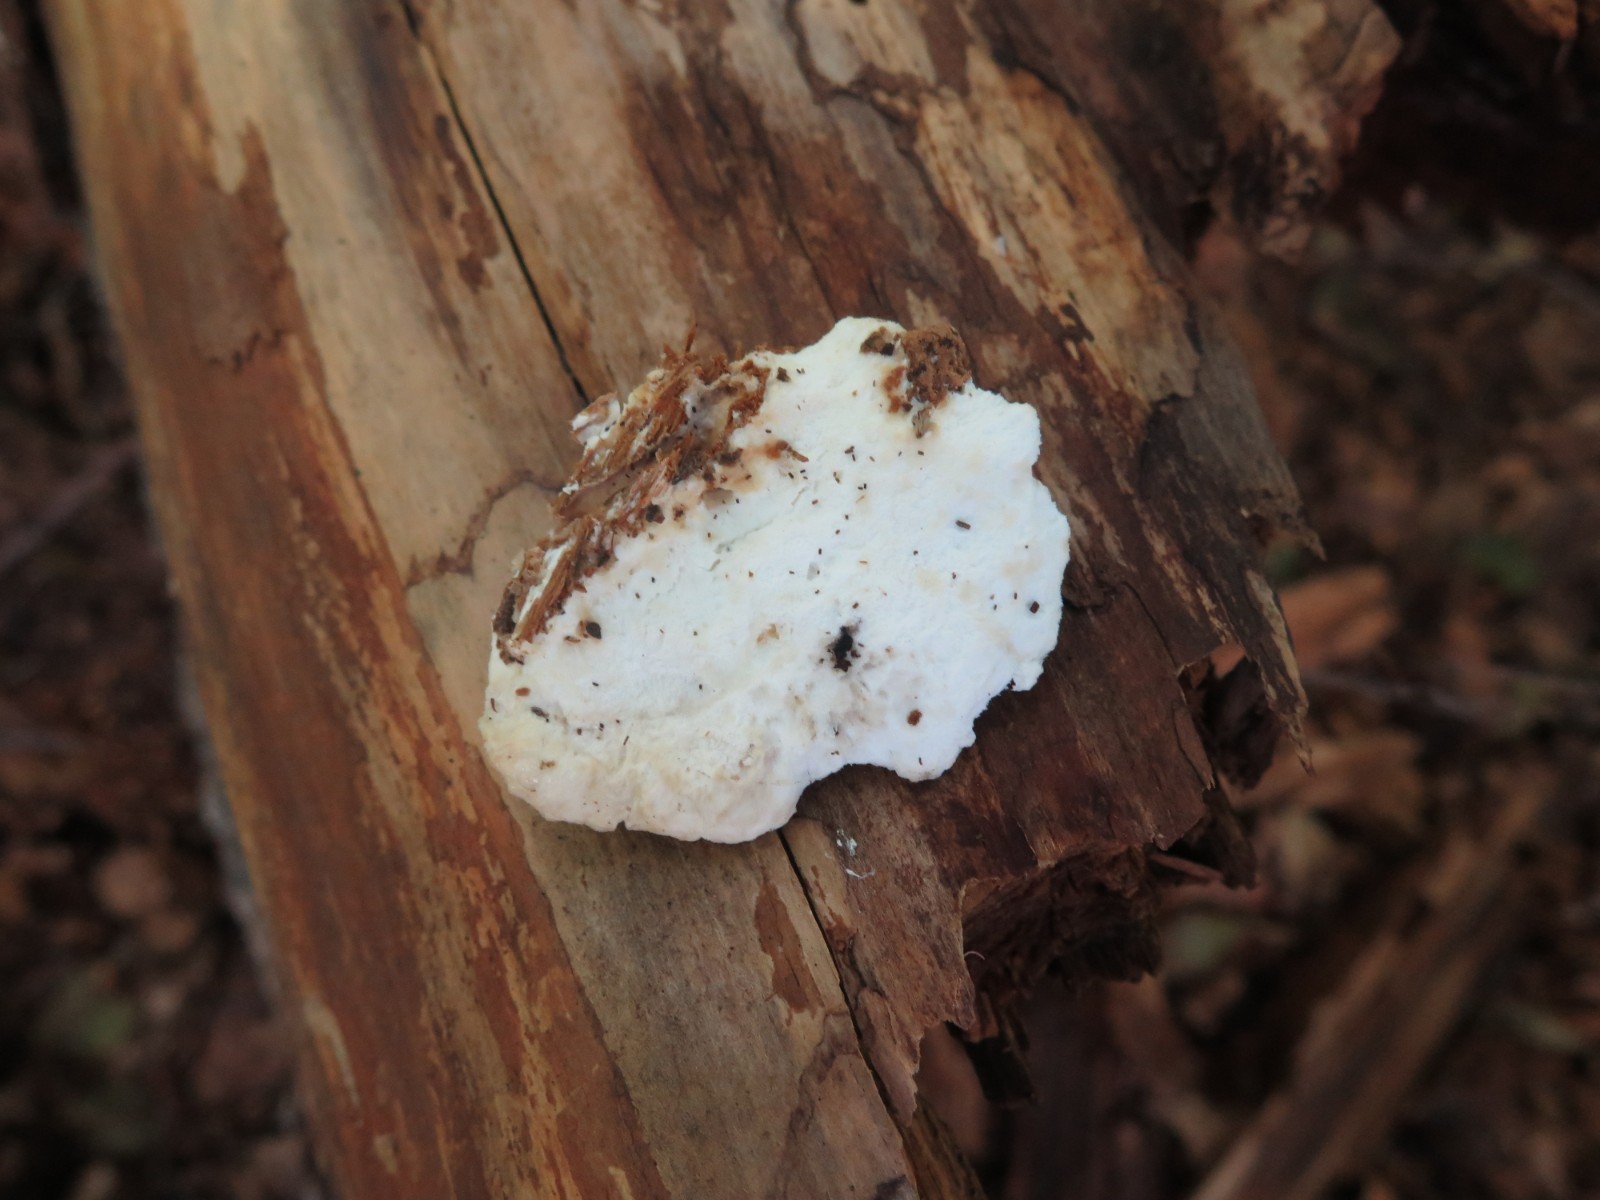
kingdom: Fungi
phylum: Basidiomycota
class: Agaricomycetes
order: Polyporales
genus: Amaropostia
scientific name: Amaropostia stiptica
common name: bitter kødporesvamp
